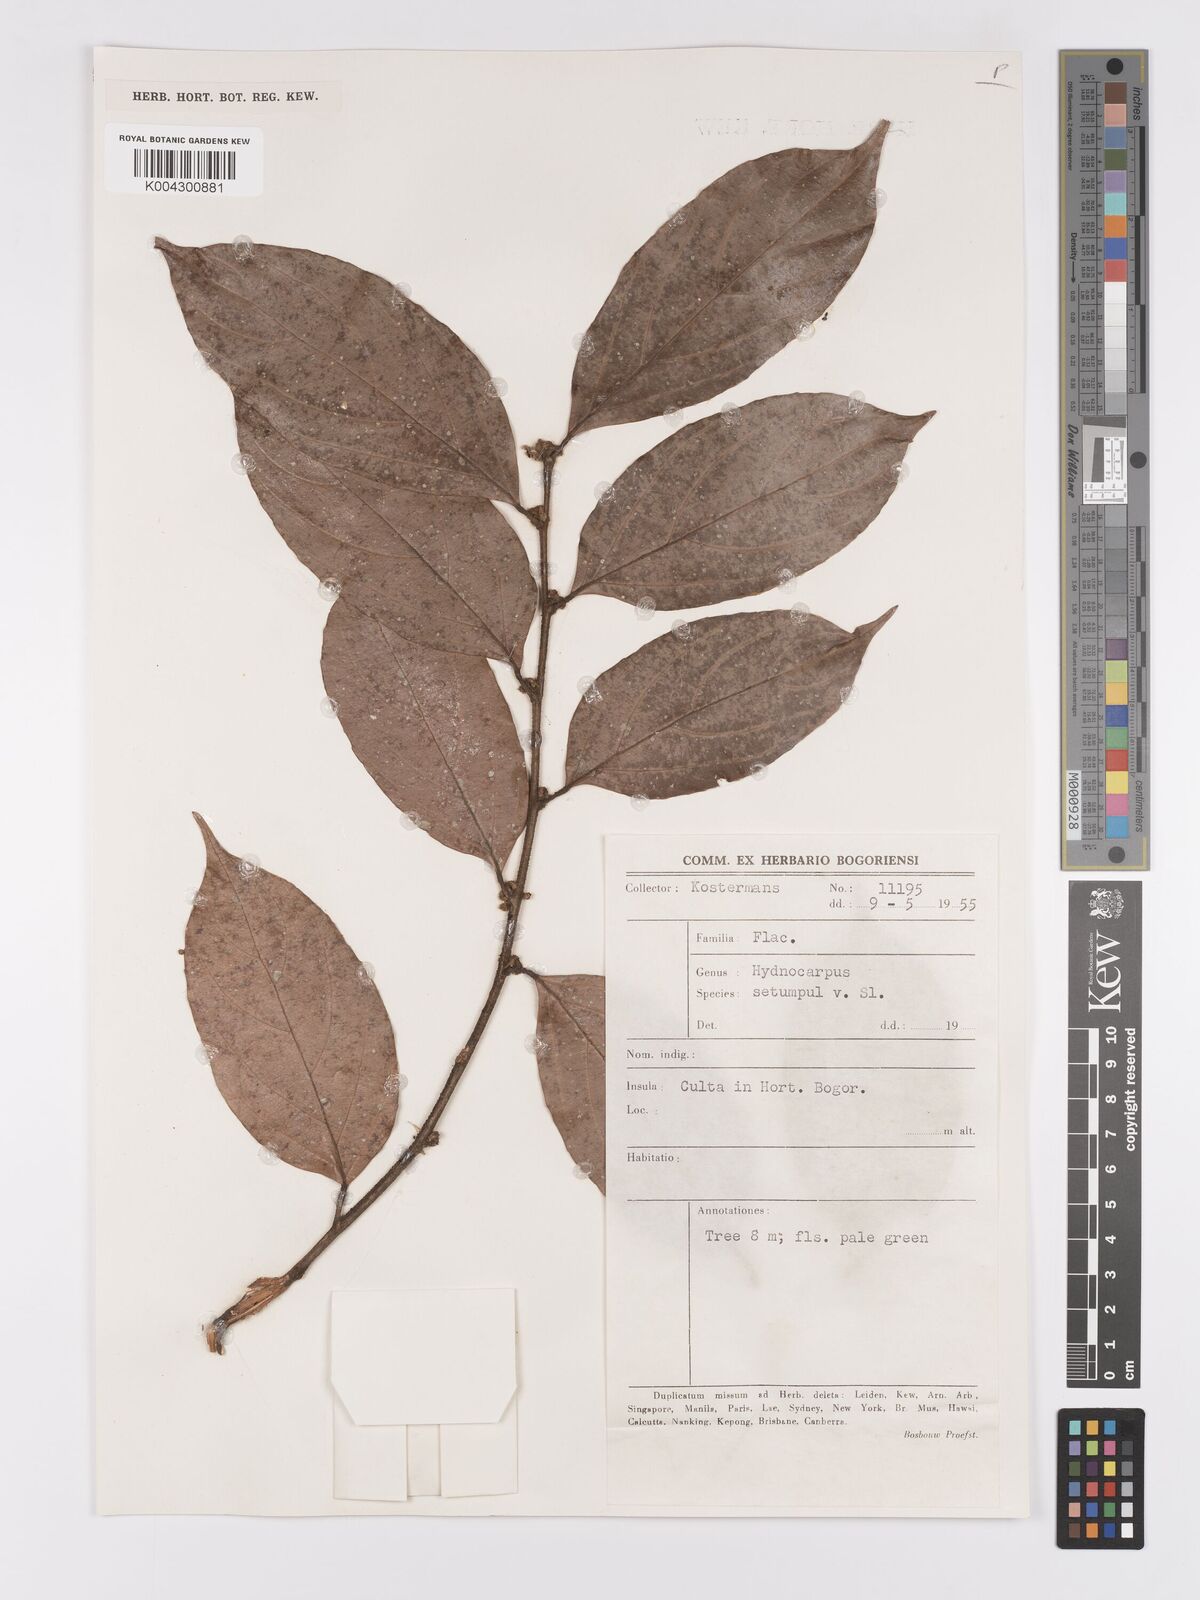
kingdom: Plantae
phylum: Tracheophyta
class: Magnoliopsida
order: Malpighiales
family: Achariaceae
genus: Hydnocarpus
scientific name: Hydnocarpus subfalcatus
